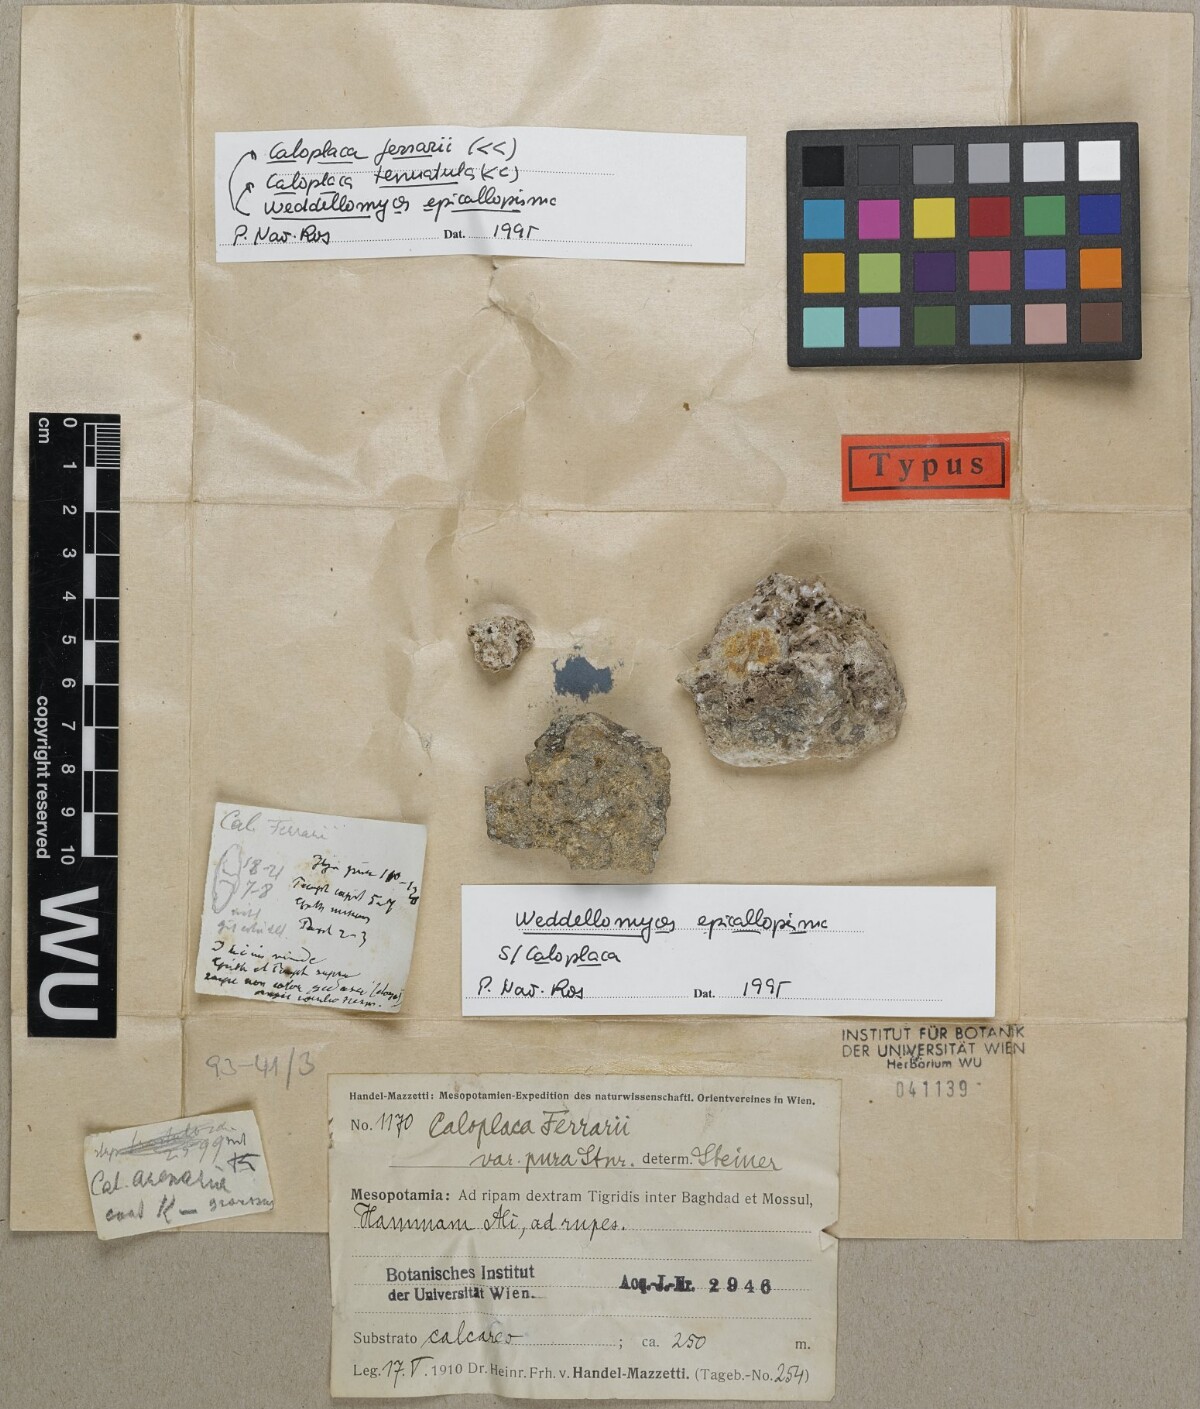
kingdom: Fungi
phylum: Ascomycota
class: Lecanoromycetes
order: Teloschistales
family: Teloschistaceae
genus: Xanthocarpia
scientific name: Xanthocarpia ferrarii
